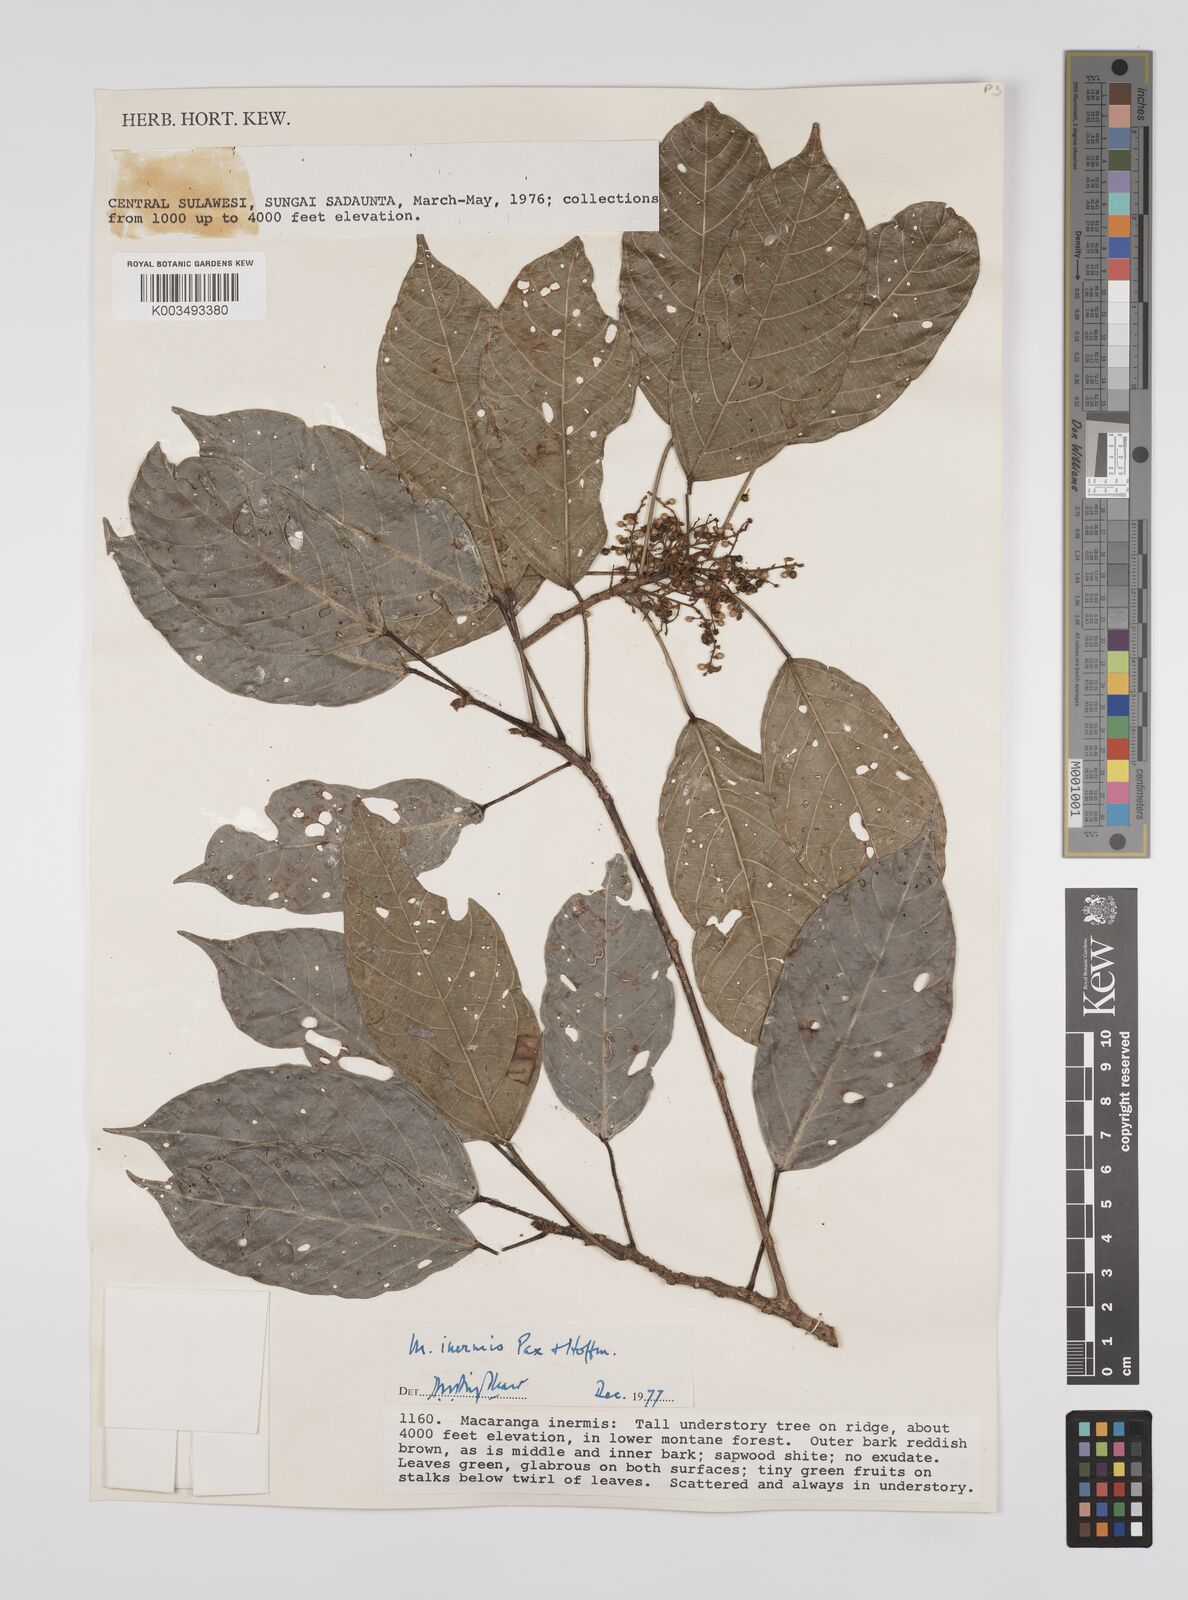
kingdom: Plantae
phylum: Tracheophyta
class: Magnoliopsida
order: Malpighiales
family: Euphorbiaceae
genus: Macaranga
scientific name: Macaranga inermis
